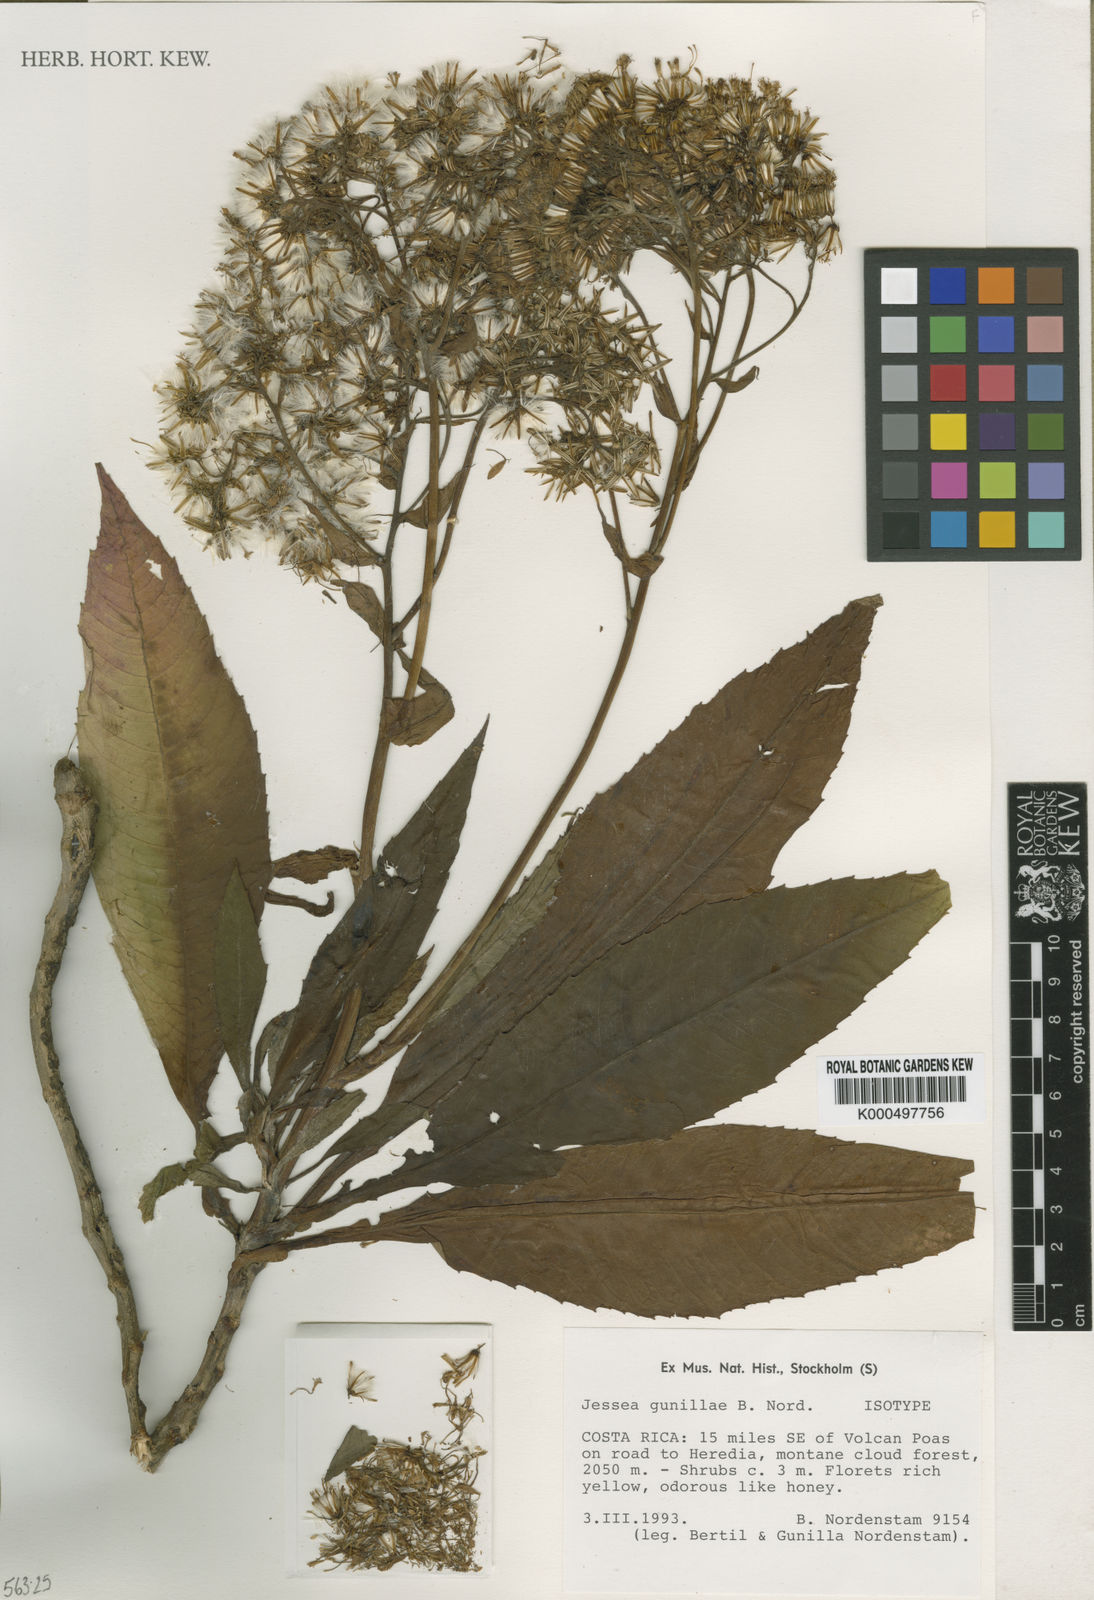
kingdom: Plantae
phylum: Tracheophyta
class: Magnoliopsida
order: Asterales
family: Asteraceae
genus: Jessea
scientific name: Jessea megaphylla
